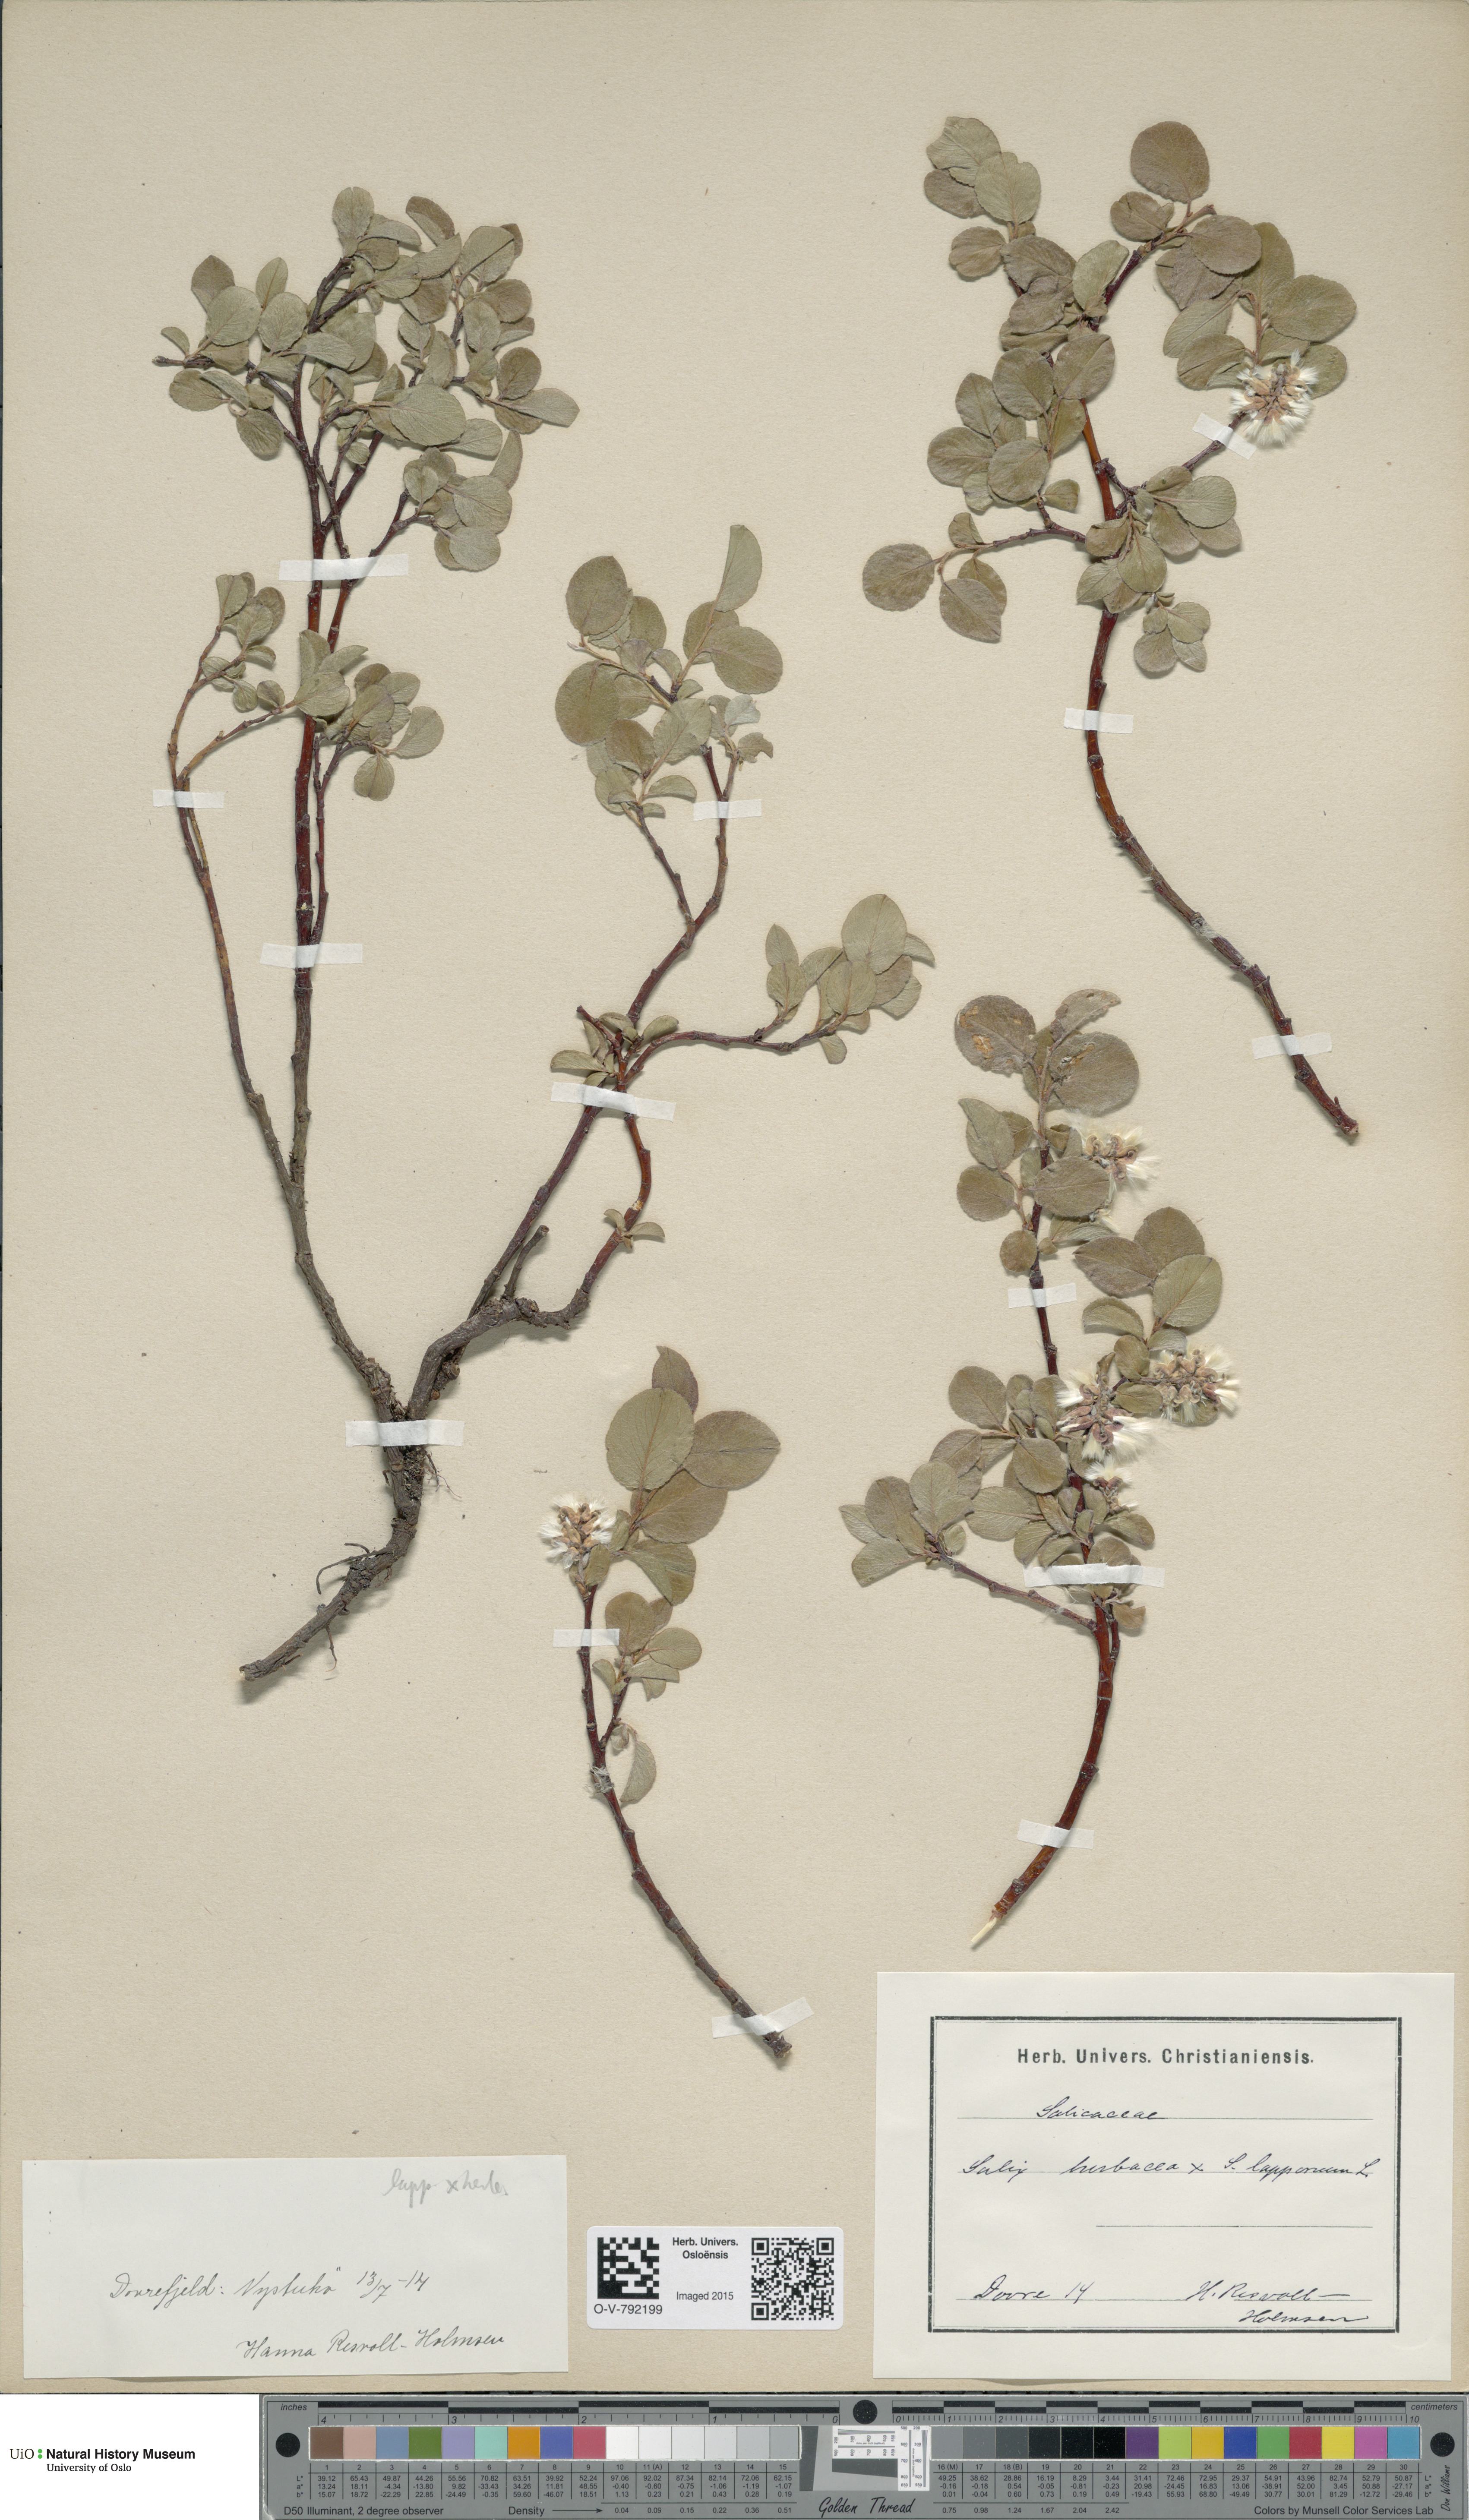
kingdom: Plantae
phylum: Tracheophyta
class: Magnoliopsida
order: Malpighiales
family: Salicaceae
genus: Salix
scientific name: Salix
